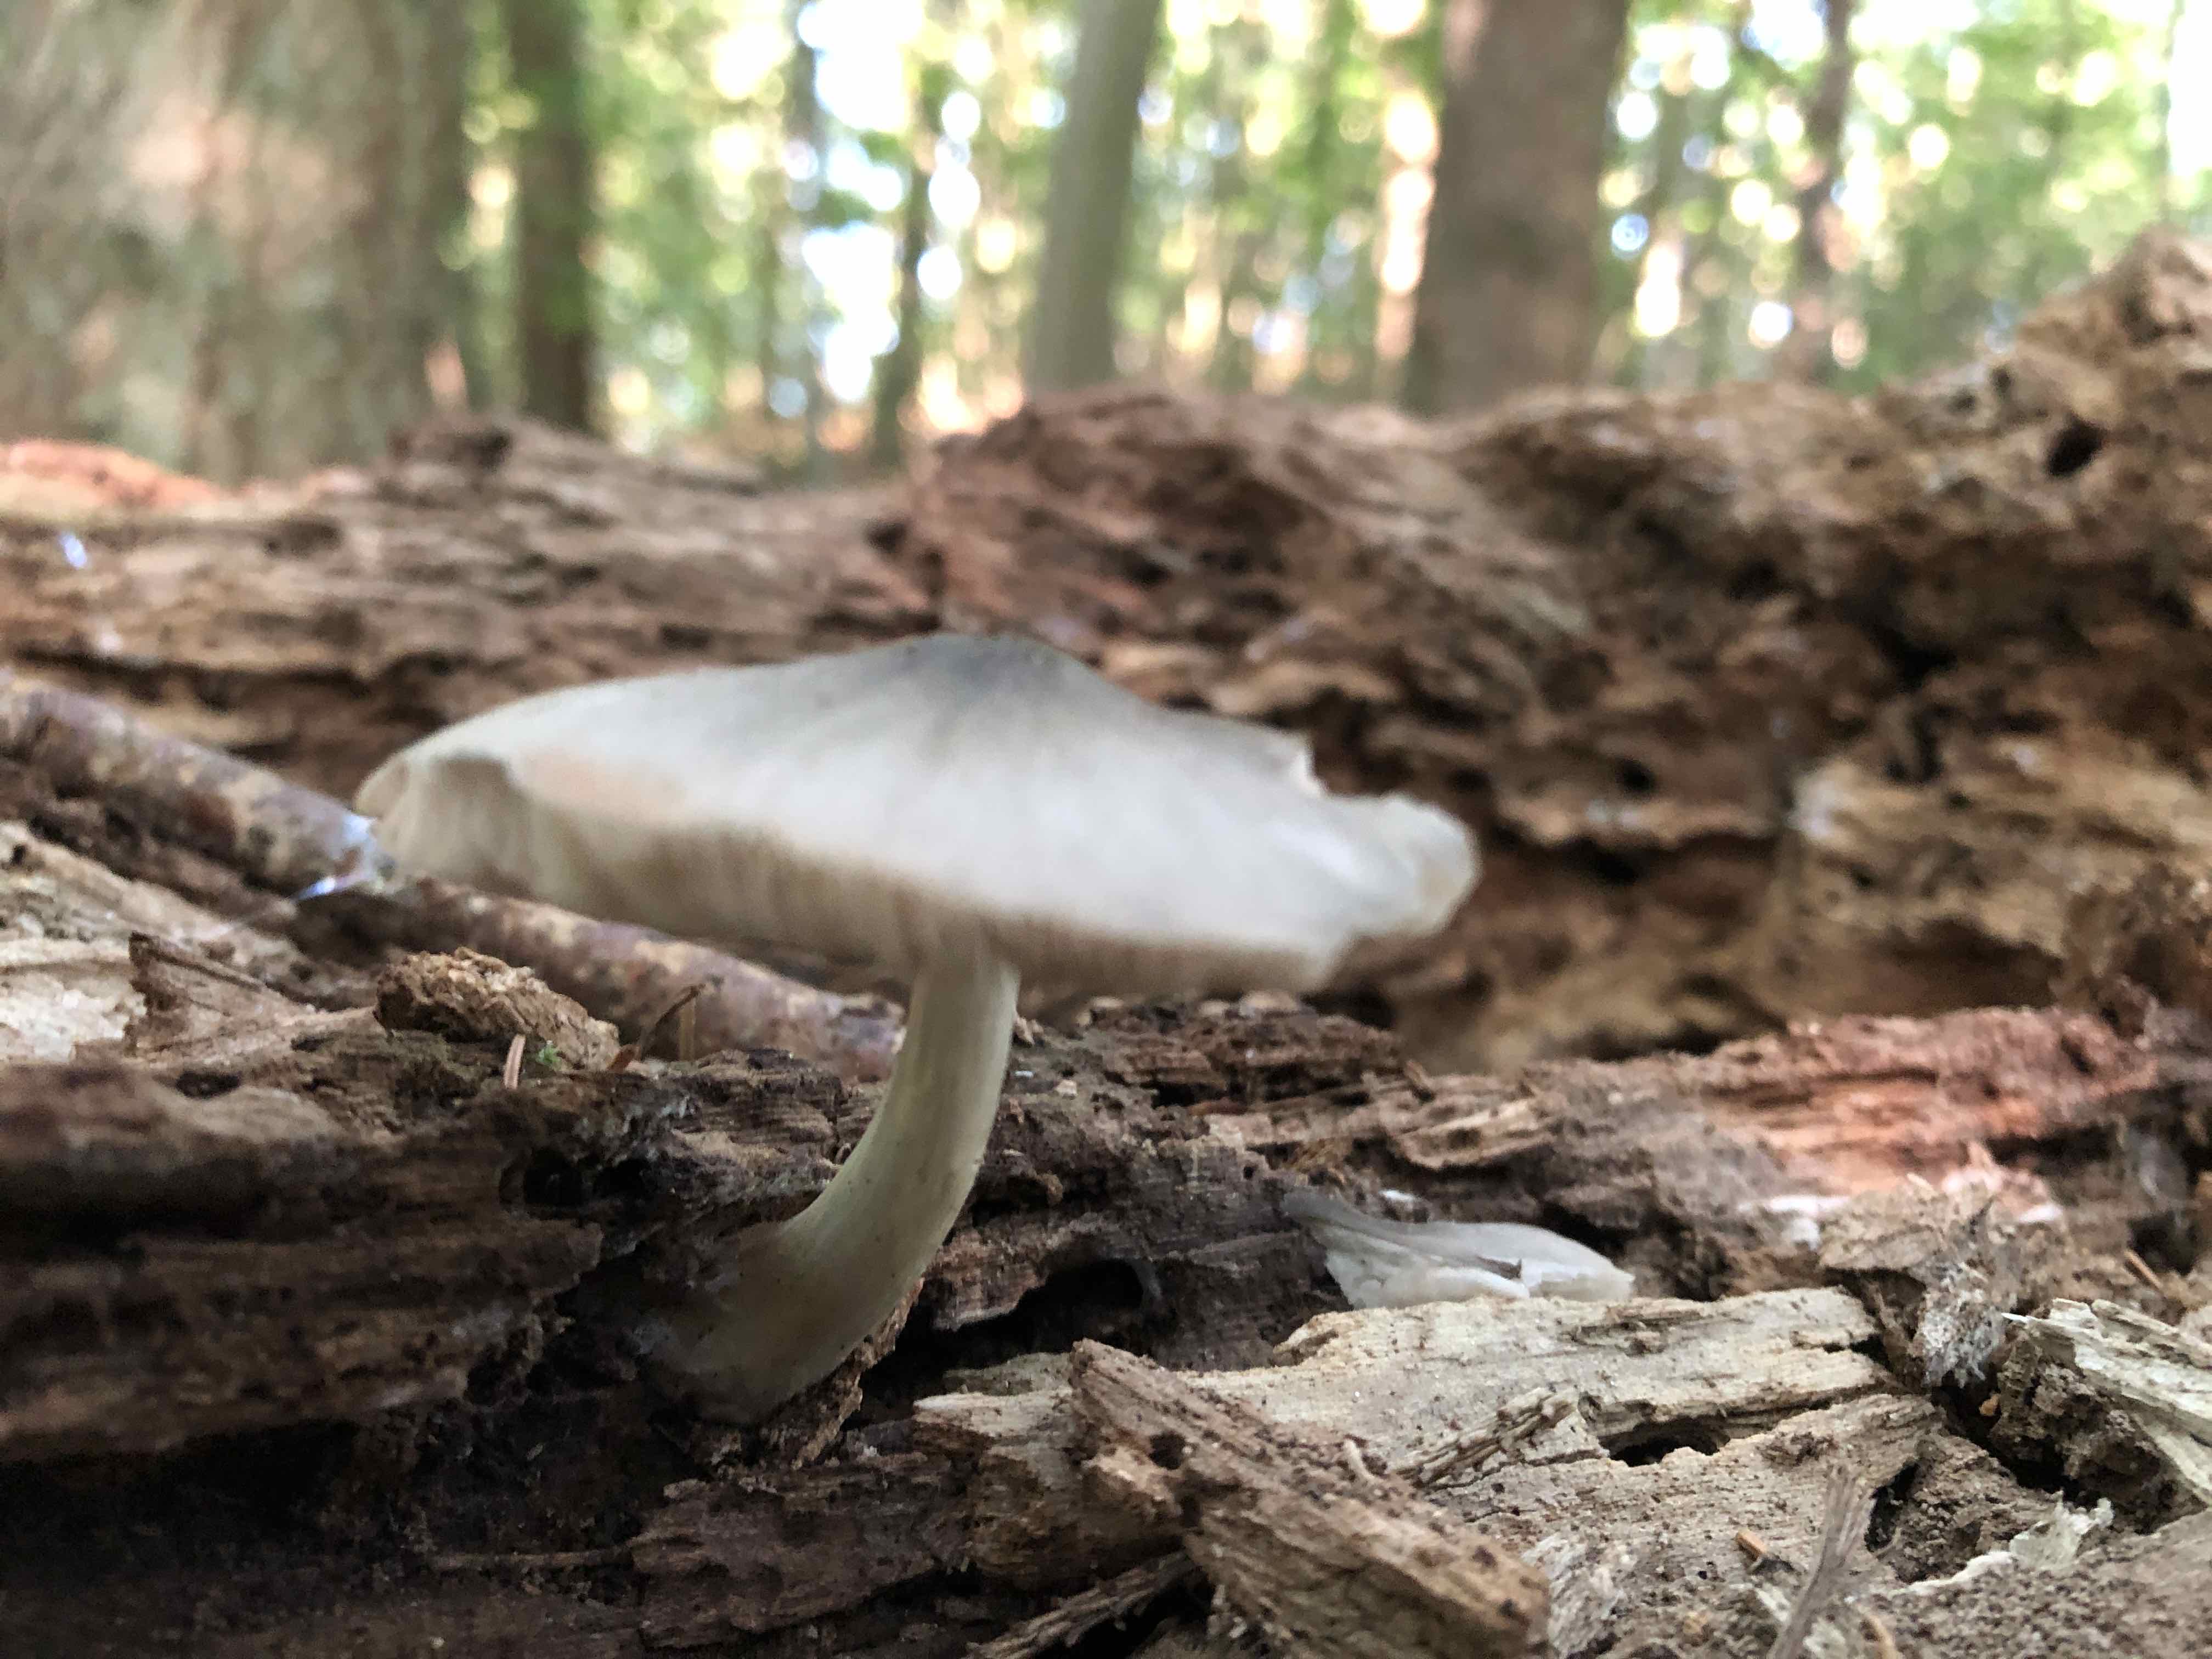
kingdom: Fungi
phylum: Basidiomycota
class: Agaricomycetes
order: Agaricales
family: Pluteaceae
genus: Pluteus
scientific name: Pluteus salicinus
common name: stiv skærmhat
